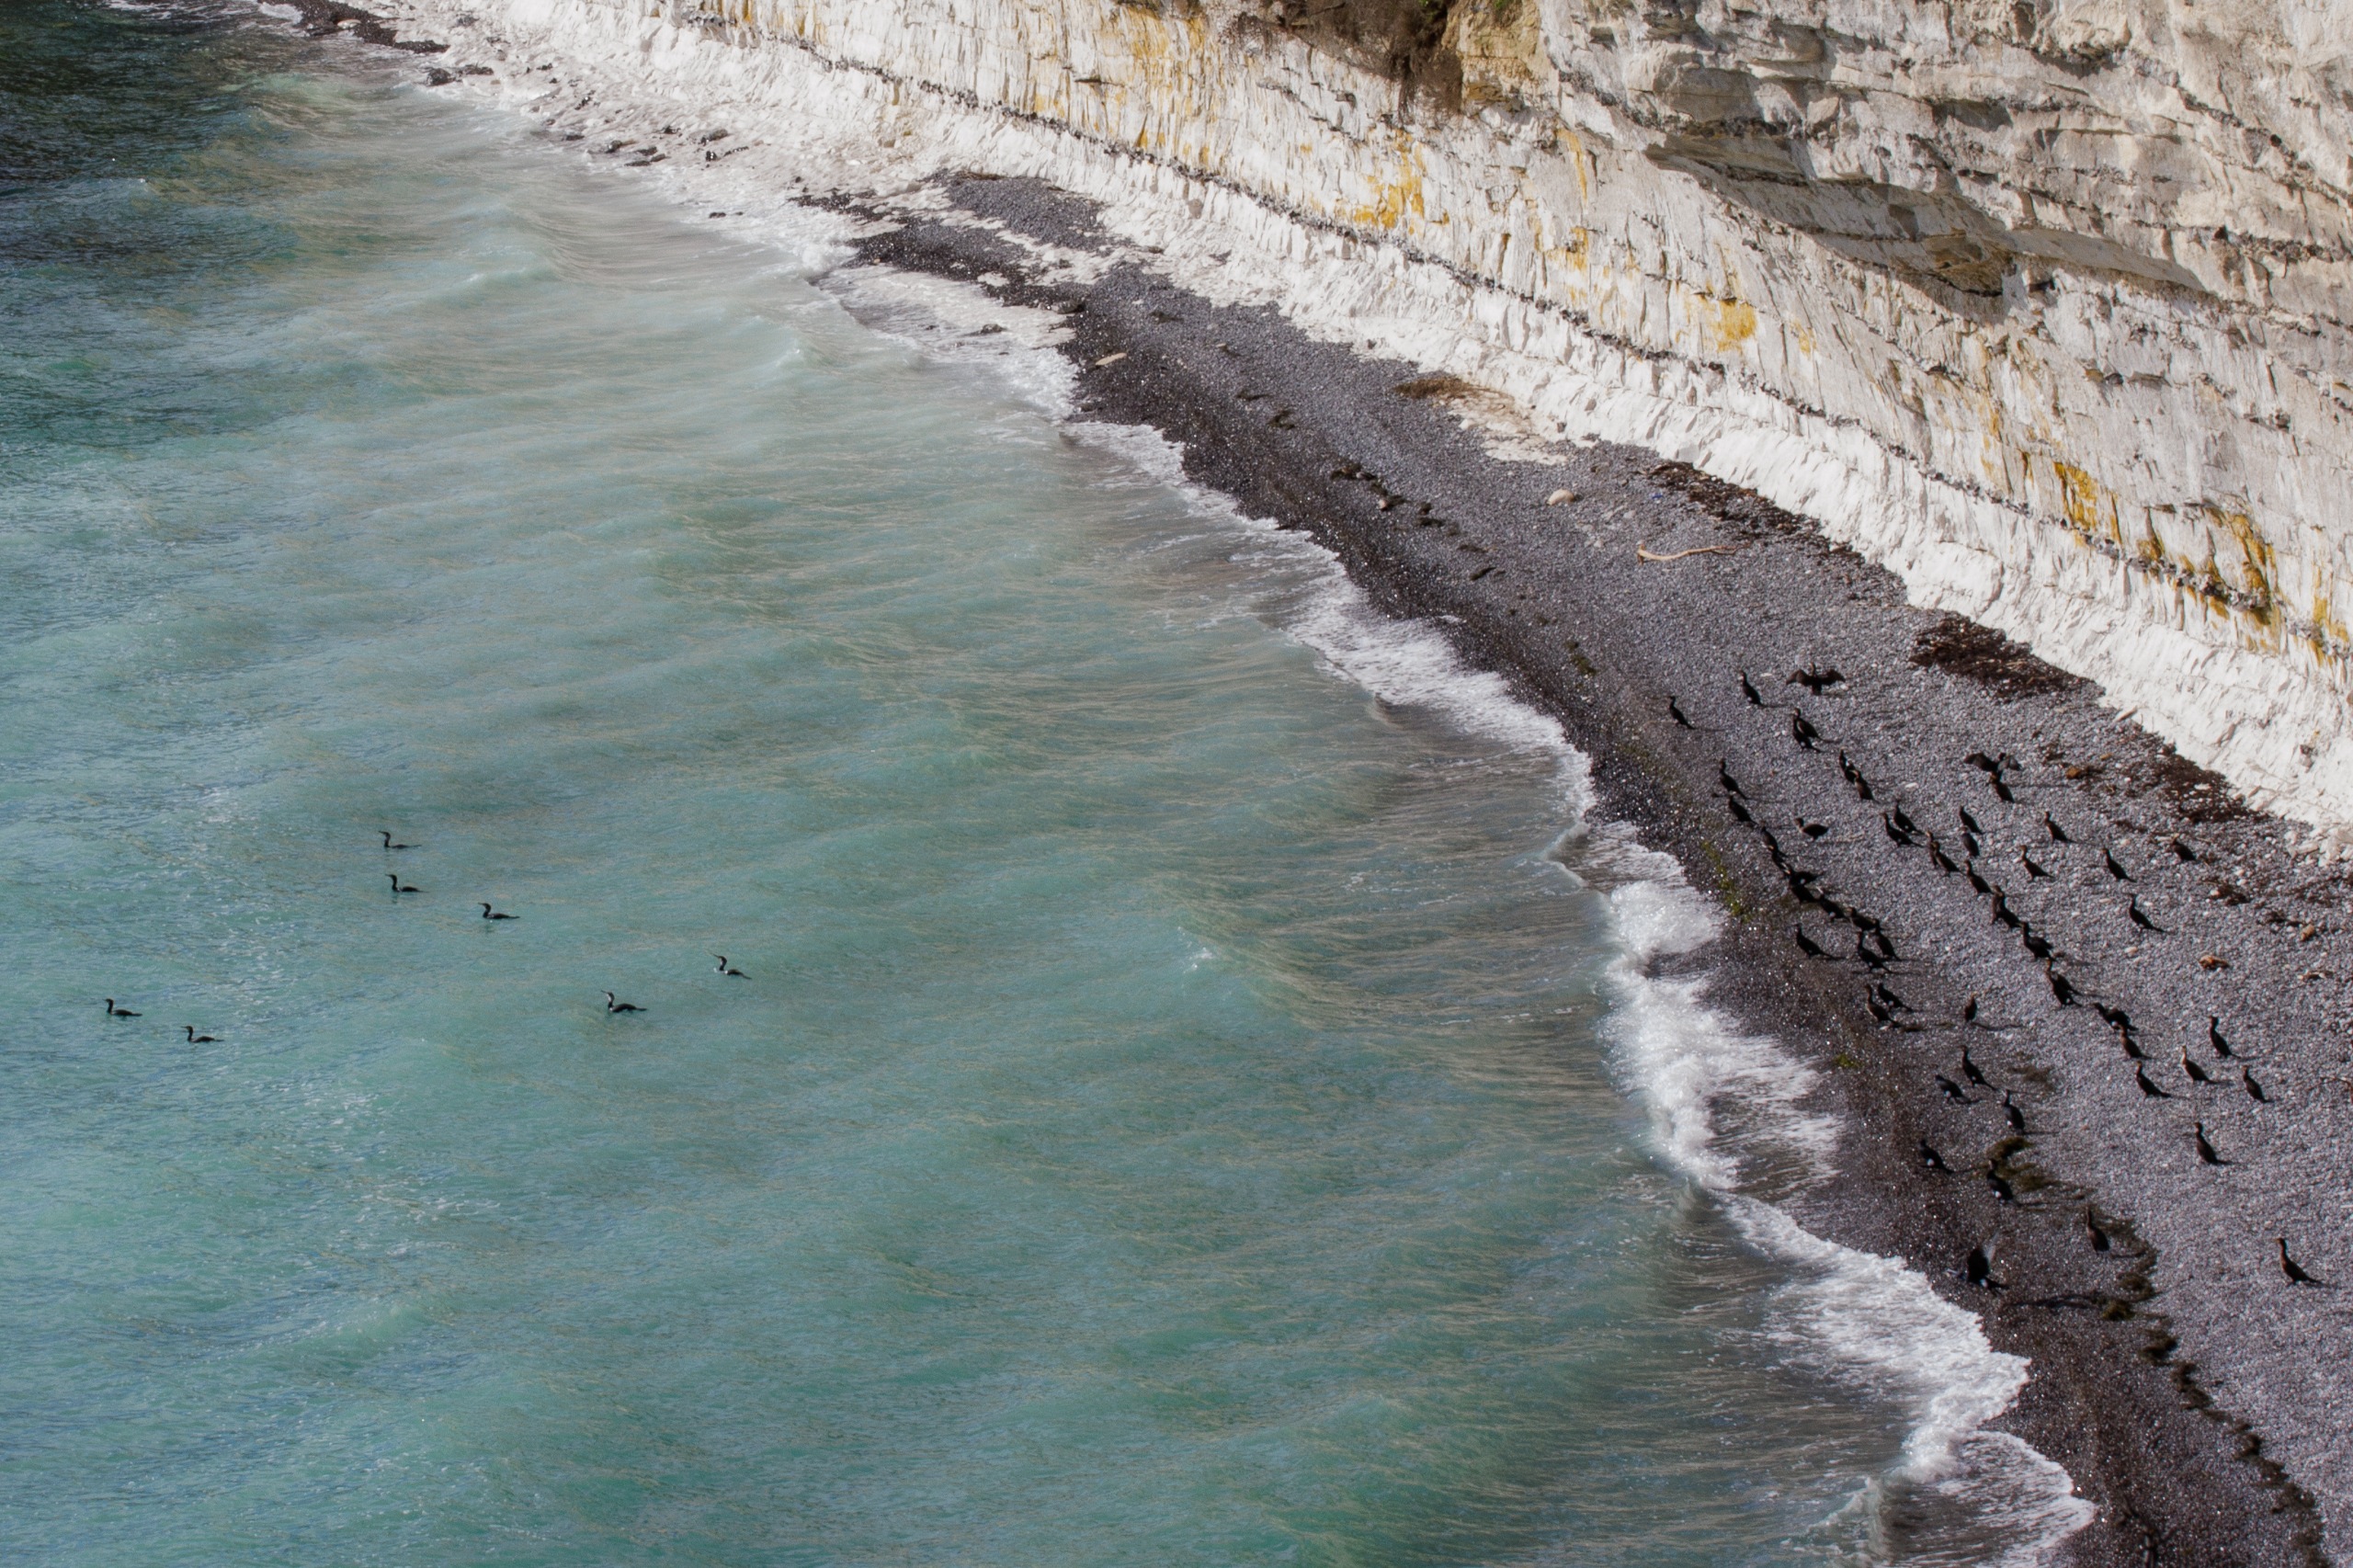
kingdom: Animalia
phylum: Chordata
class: Aves
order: Suliformes
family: Phalacrocoracidae
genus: Phalacrocorax
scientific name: Phalacrocorax carbo
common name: Skarv
